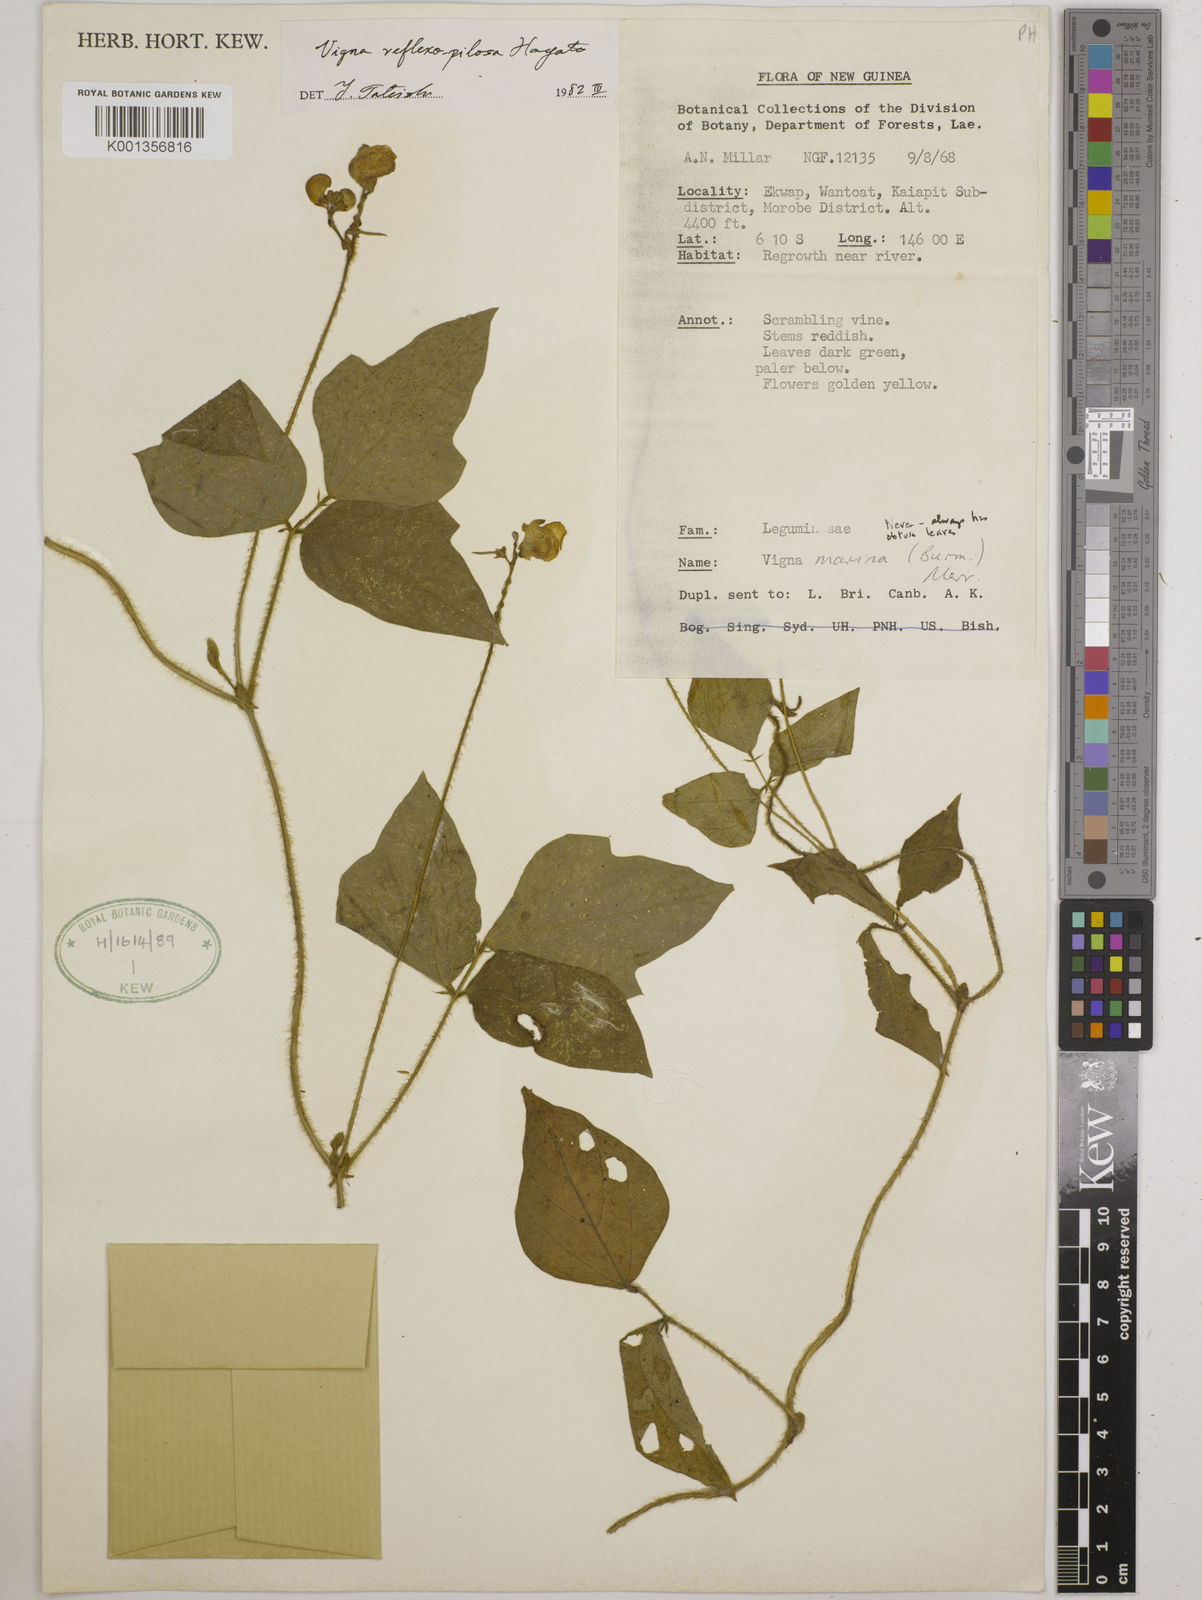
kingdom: Plantae
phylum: Tracheophyta
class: Magnoliopsida
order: Fabales
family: Fabaceae
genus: Vigna
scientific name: Vigna reflexopilosa
